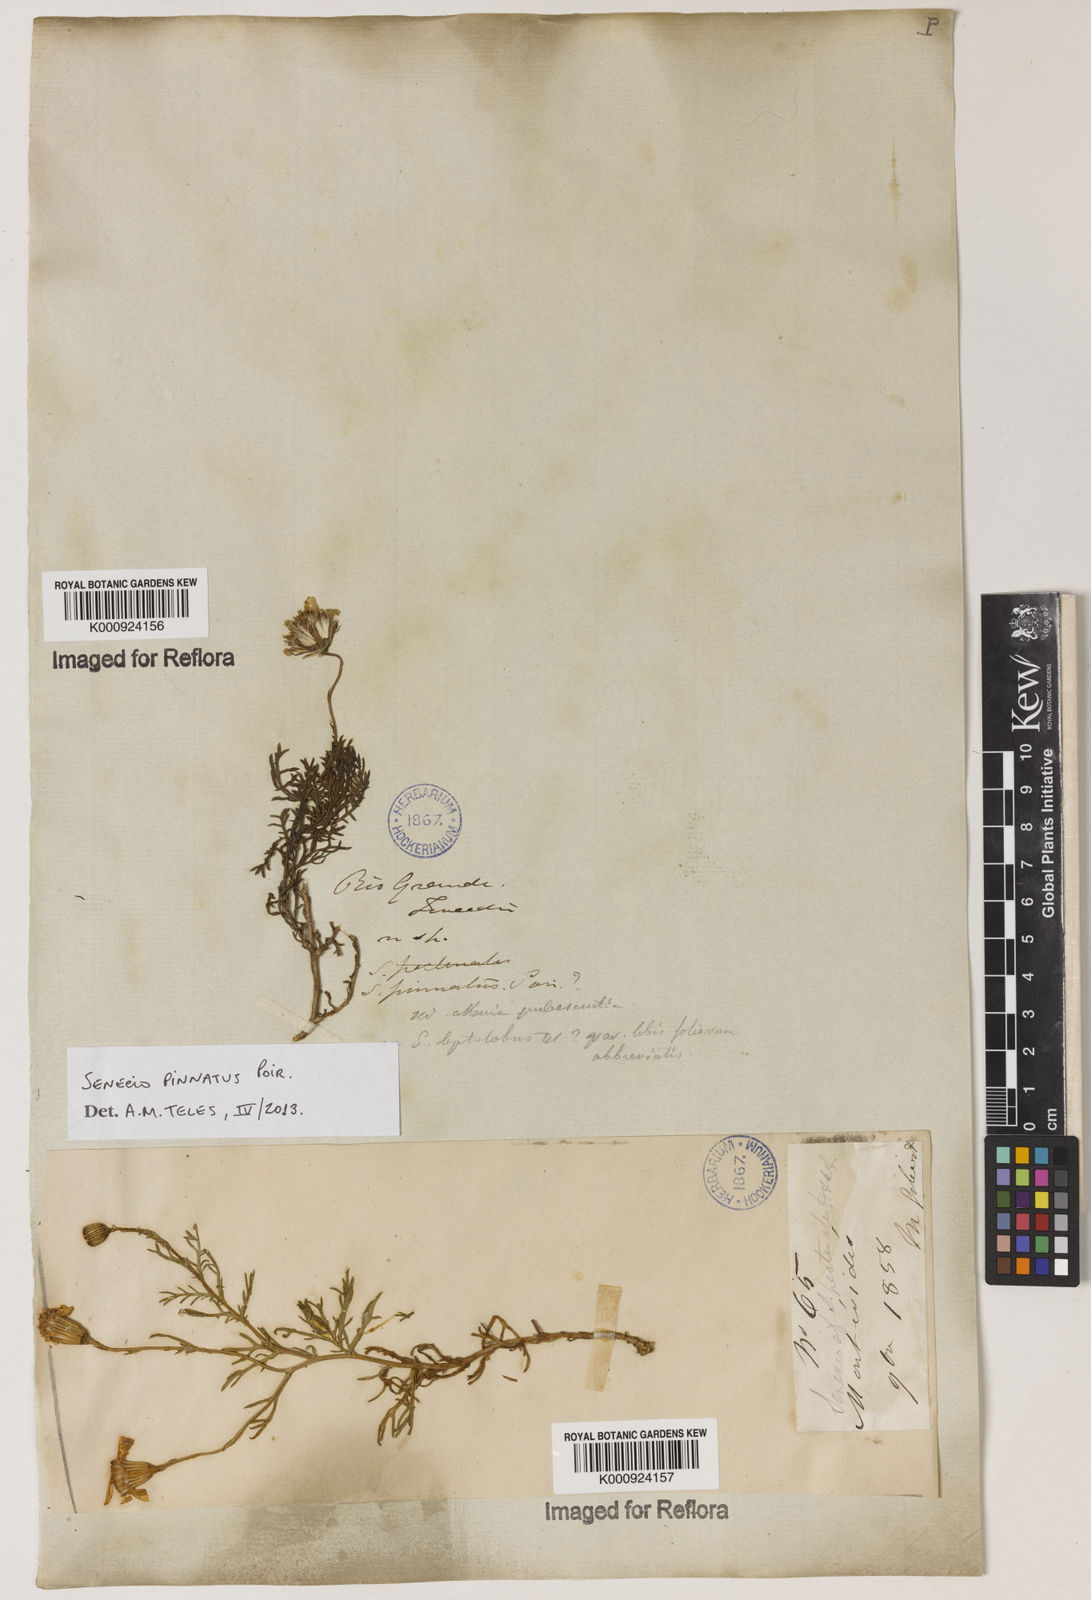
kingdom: Plantae
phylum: Tracheophyta
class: Magnoliopsida
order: Asterales
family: Asteraceae
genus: Senecio
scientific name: Senecio pinnatus
